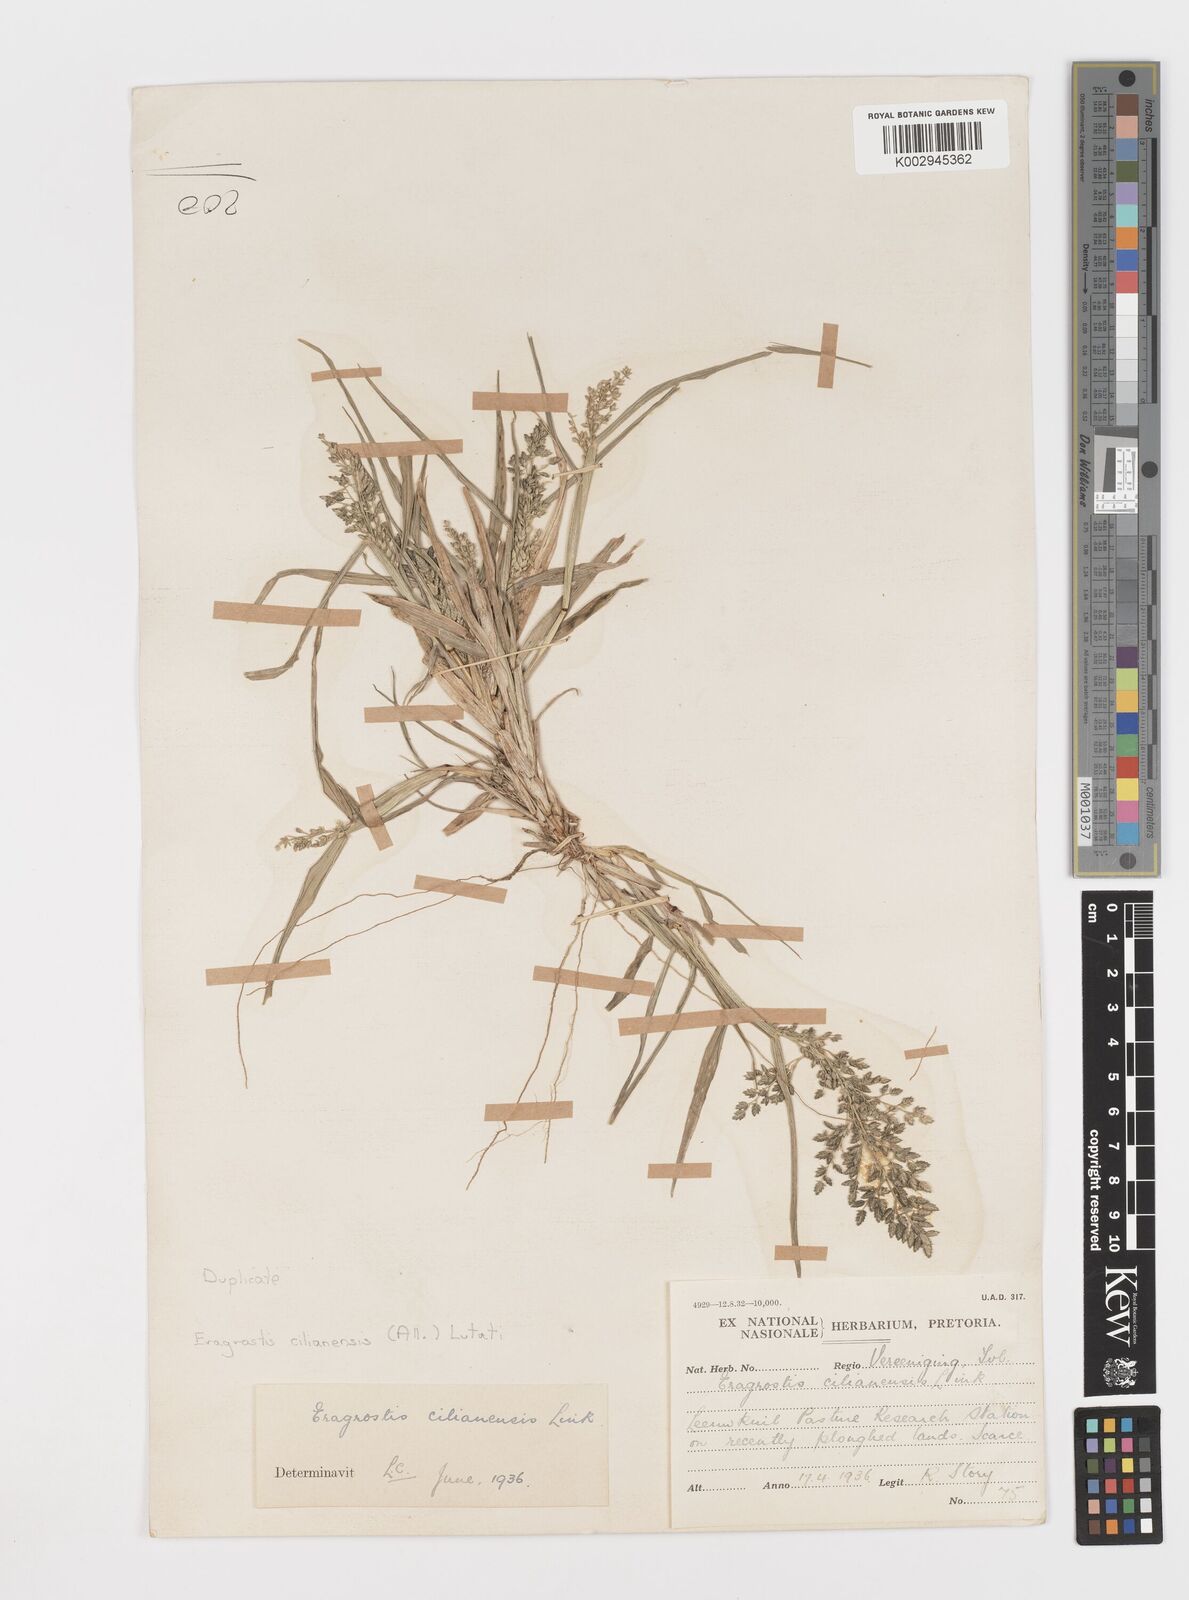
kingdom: Plantae
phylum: Tracheophyta
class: Liliopsida
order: Poales
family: Poaceae
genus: Eragrostis
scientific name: Eragrostis cilianensis
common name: Stinkgrass
